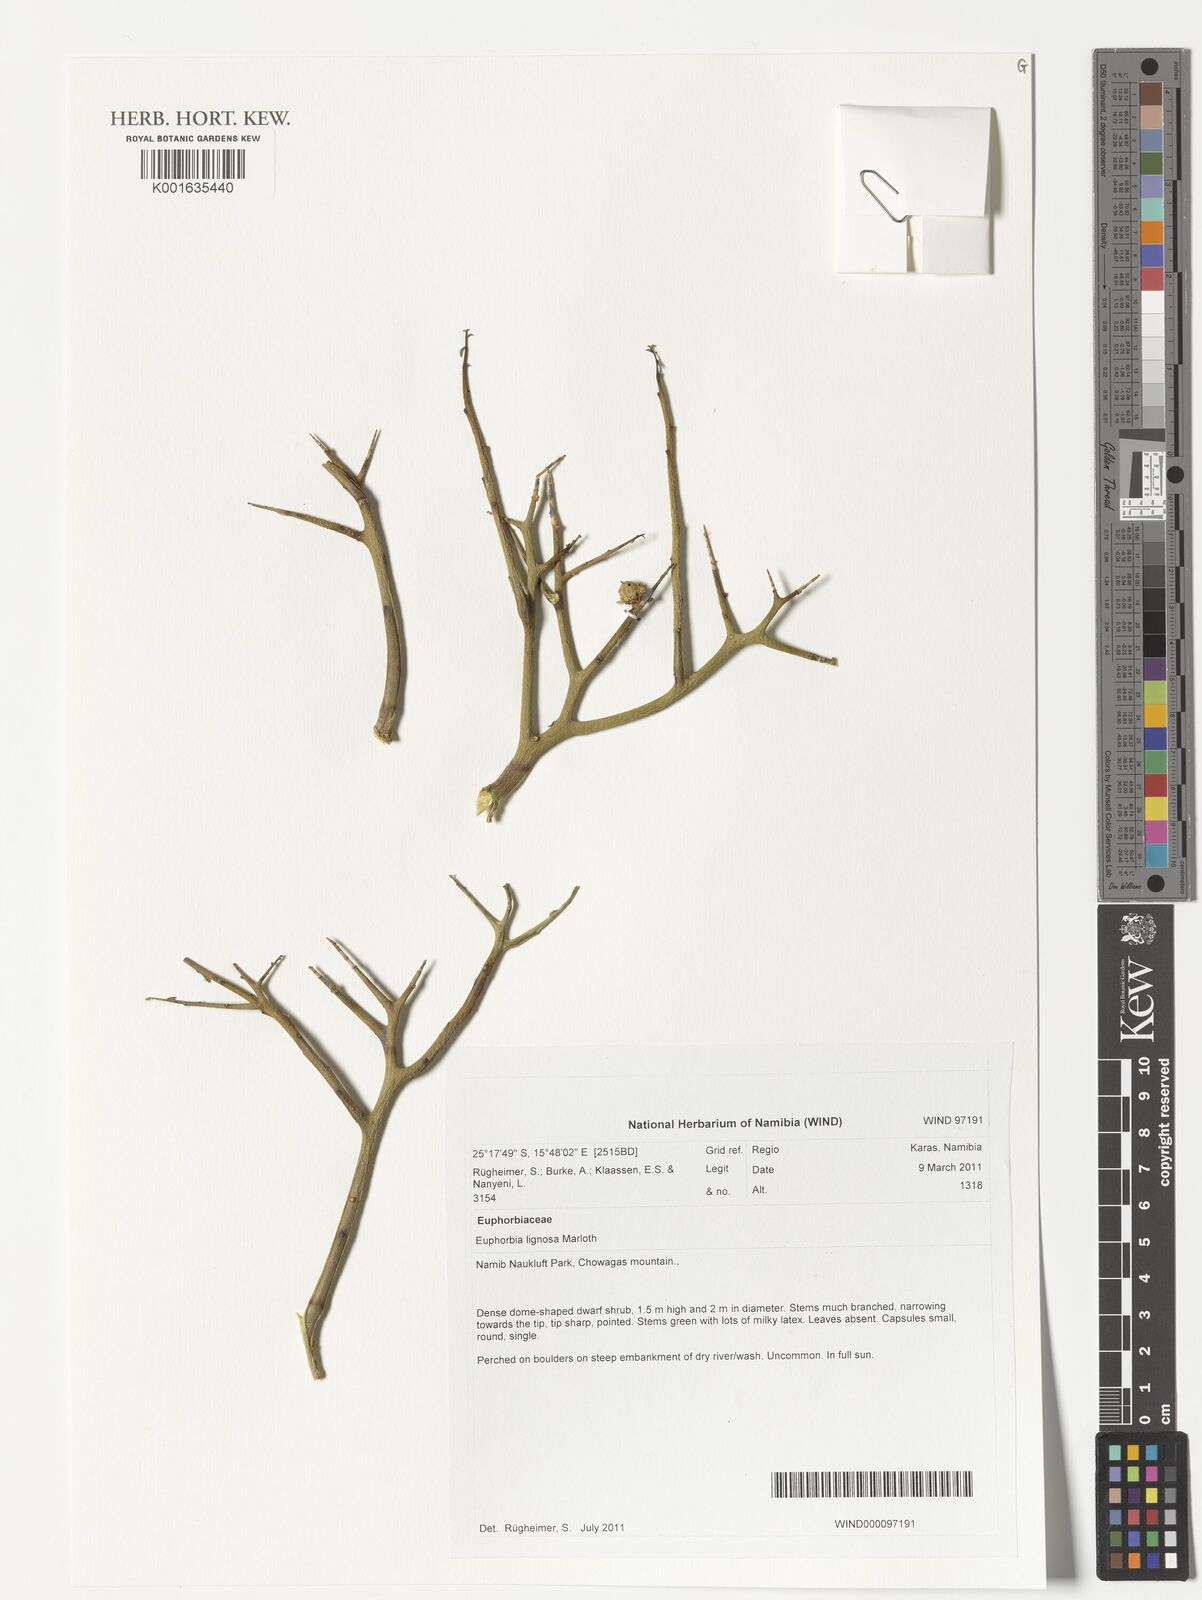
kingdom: Plantae
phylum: Tracheophyta
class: Magnoliopsida
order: Malpighiales
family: Euphorbiaceae
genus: Euphorbia
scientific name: Euphorbia lignosa
